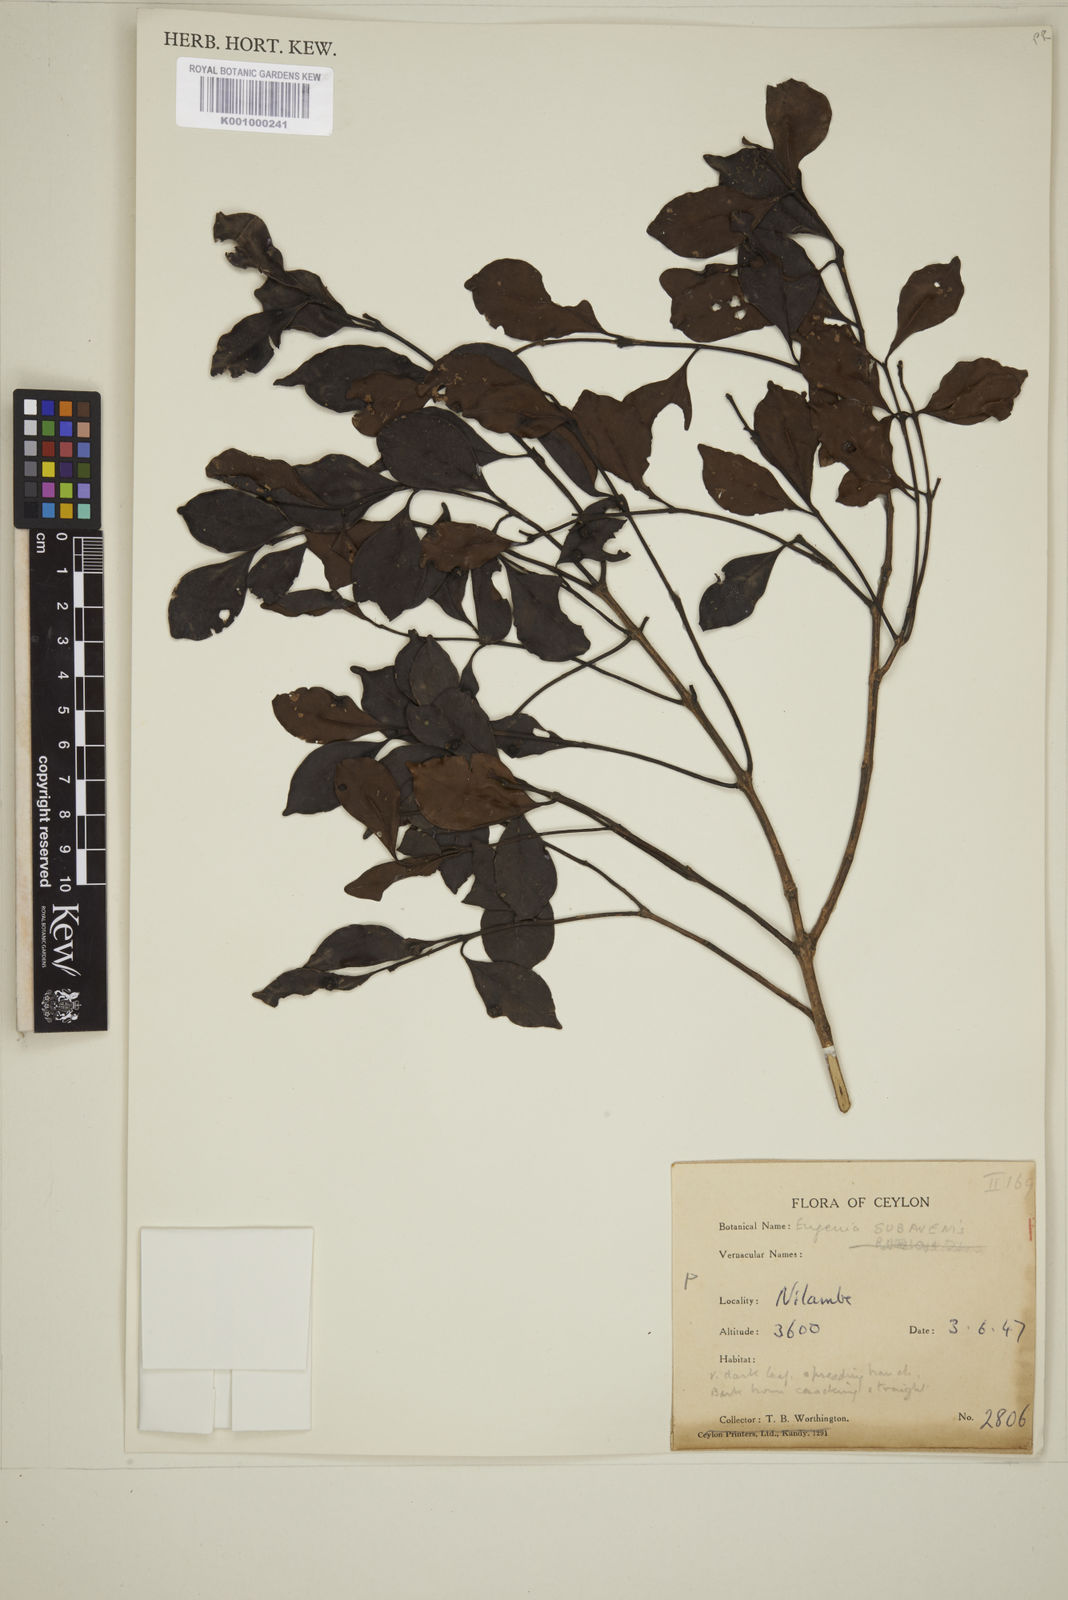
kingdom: Plantae
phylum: Tracheophyta
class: Magnoliopsida
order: Myrtales
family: Myrtaceae
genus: Eugenia
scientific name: Eugenia
